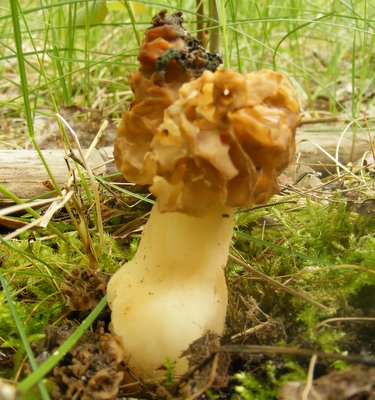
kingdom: Fungi
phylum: Ascomycota
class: Pezizomycetes
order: Pezizales
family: Morchellaceae
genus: Morchella
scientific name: Morchella esculenta
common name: spiselig morkel
